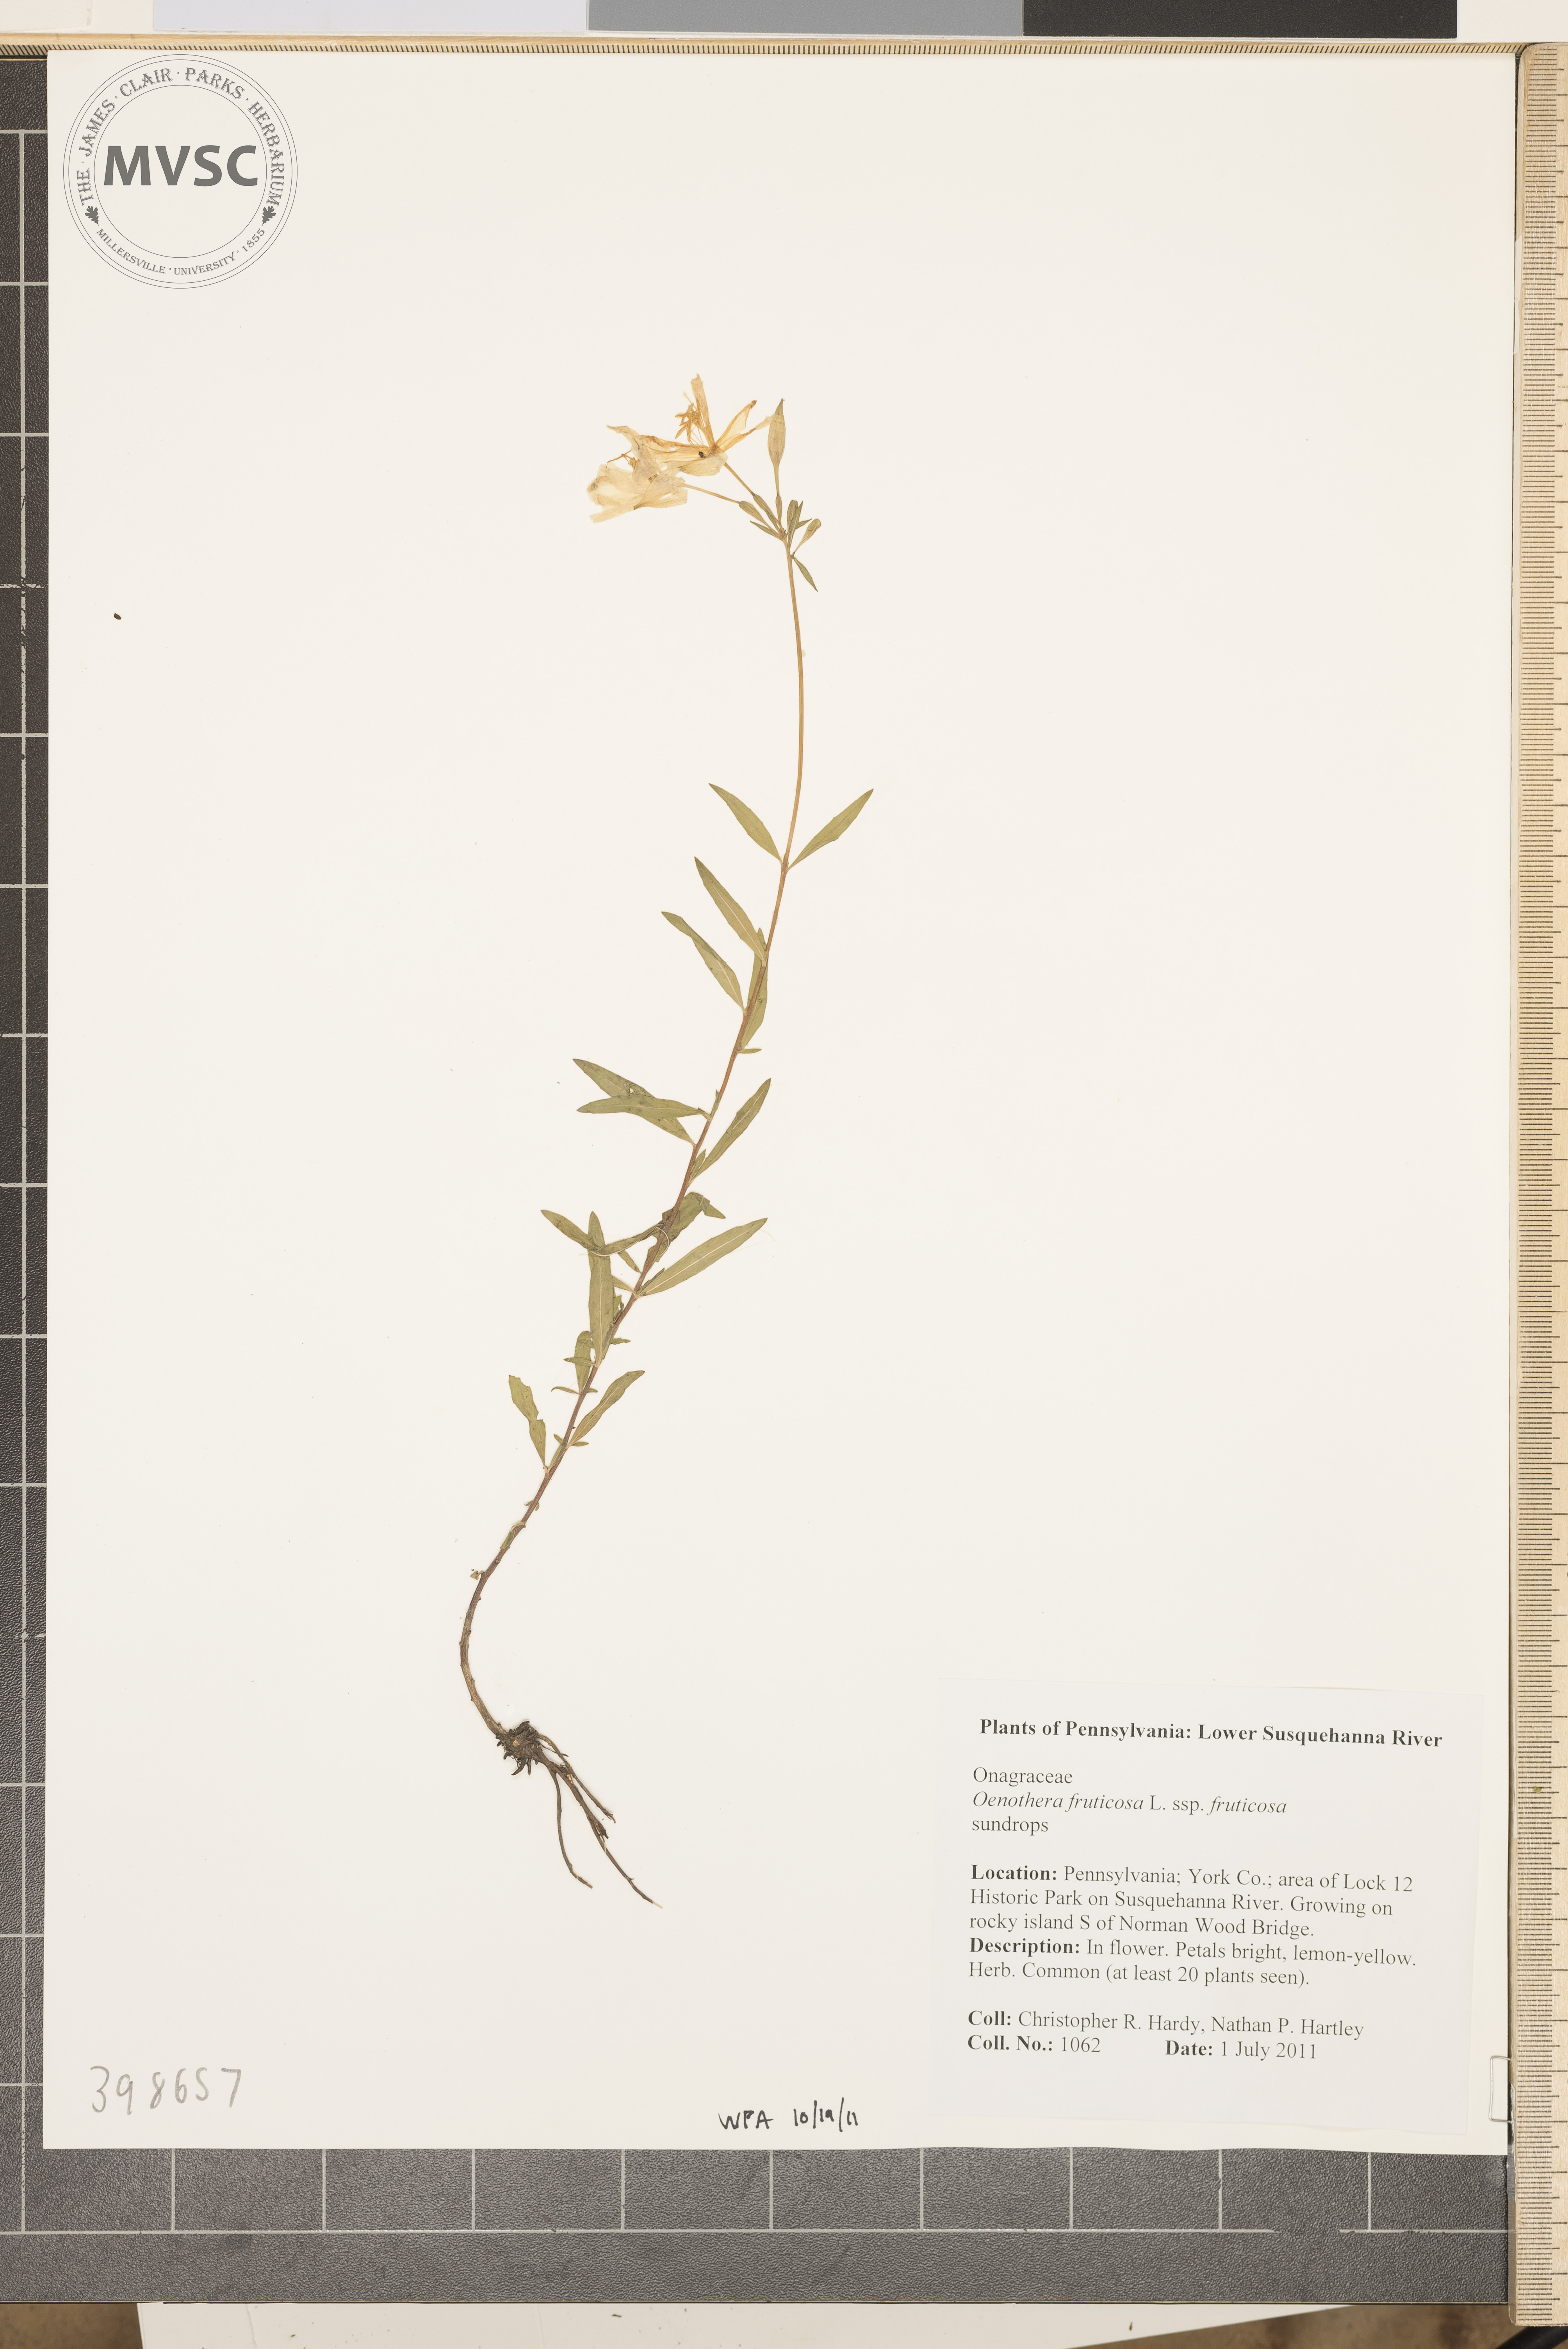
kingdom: Plantae
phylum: Tracheophyta
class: Magnoliopsida
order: Myrtales
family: Onagraceae
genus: Oenothera
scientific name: Oenothera fruticosa
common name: Evening-primrose
